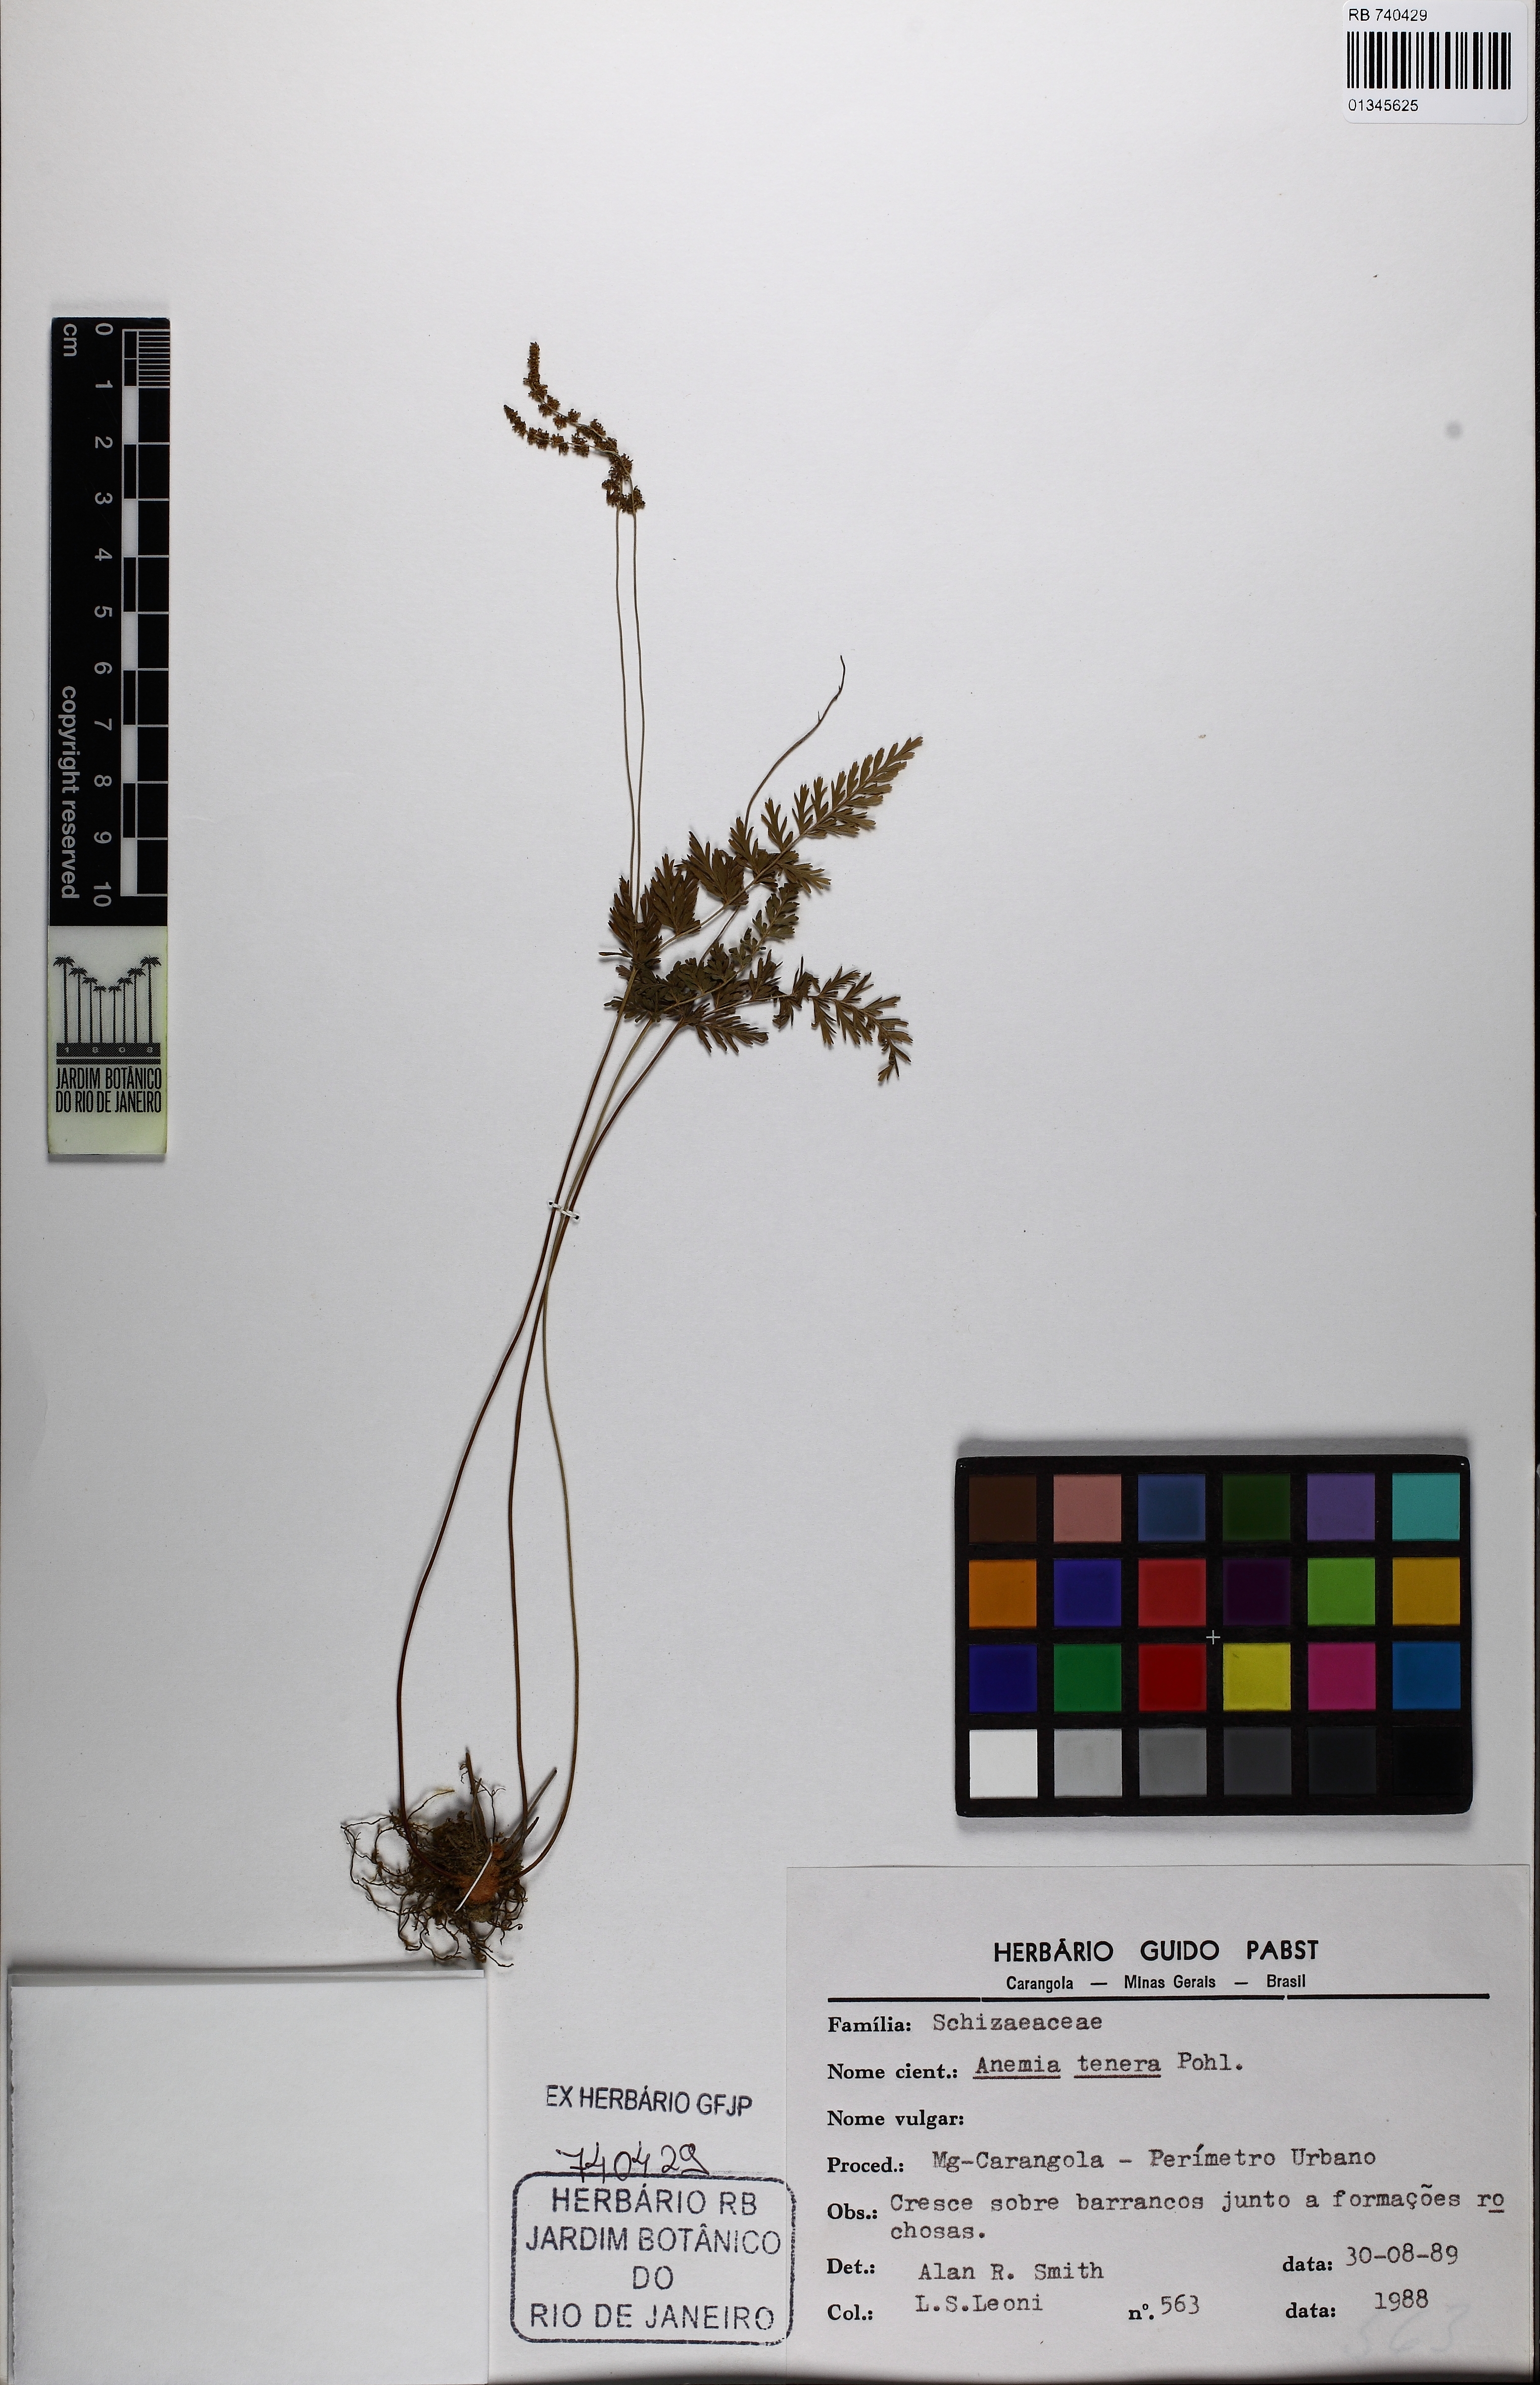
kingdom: Plantae
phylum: Tracheophyta
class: Polypodiopsida
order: Schizaeales
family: Anemiaceae
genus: Anemia
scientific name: Anemia hirsuta
